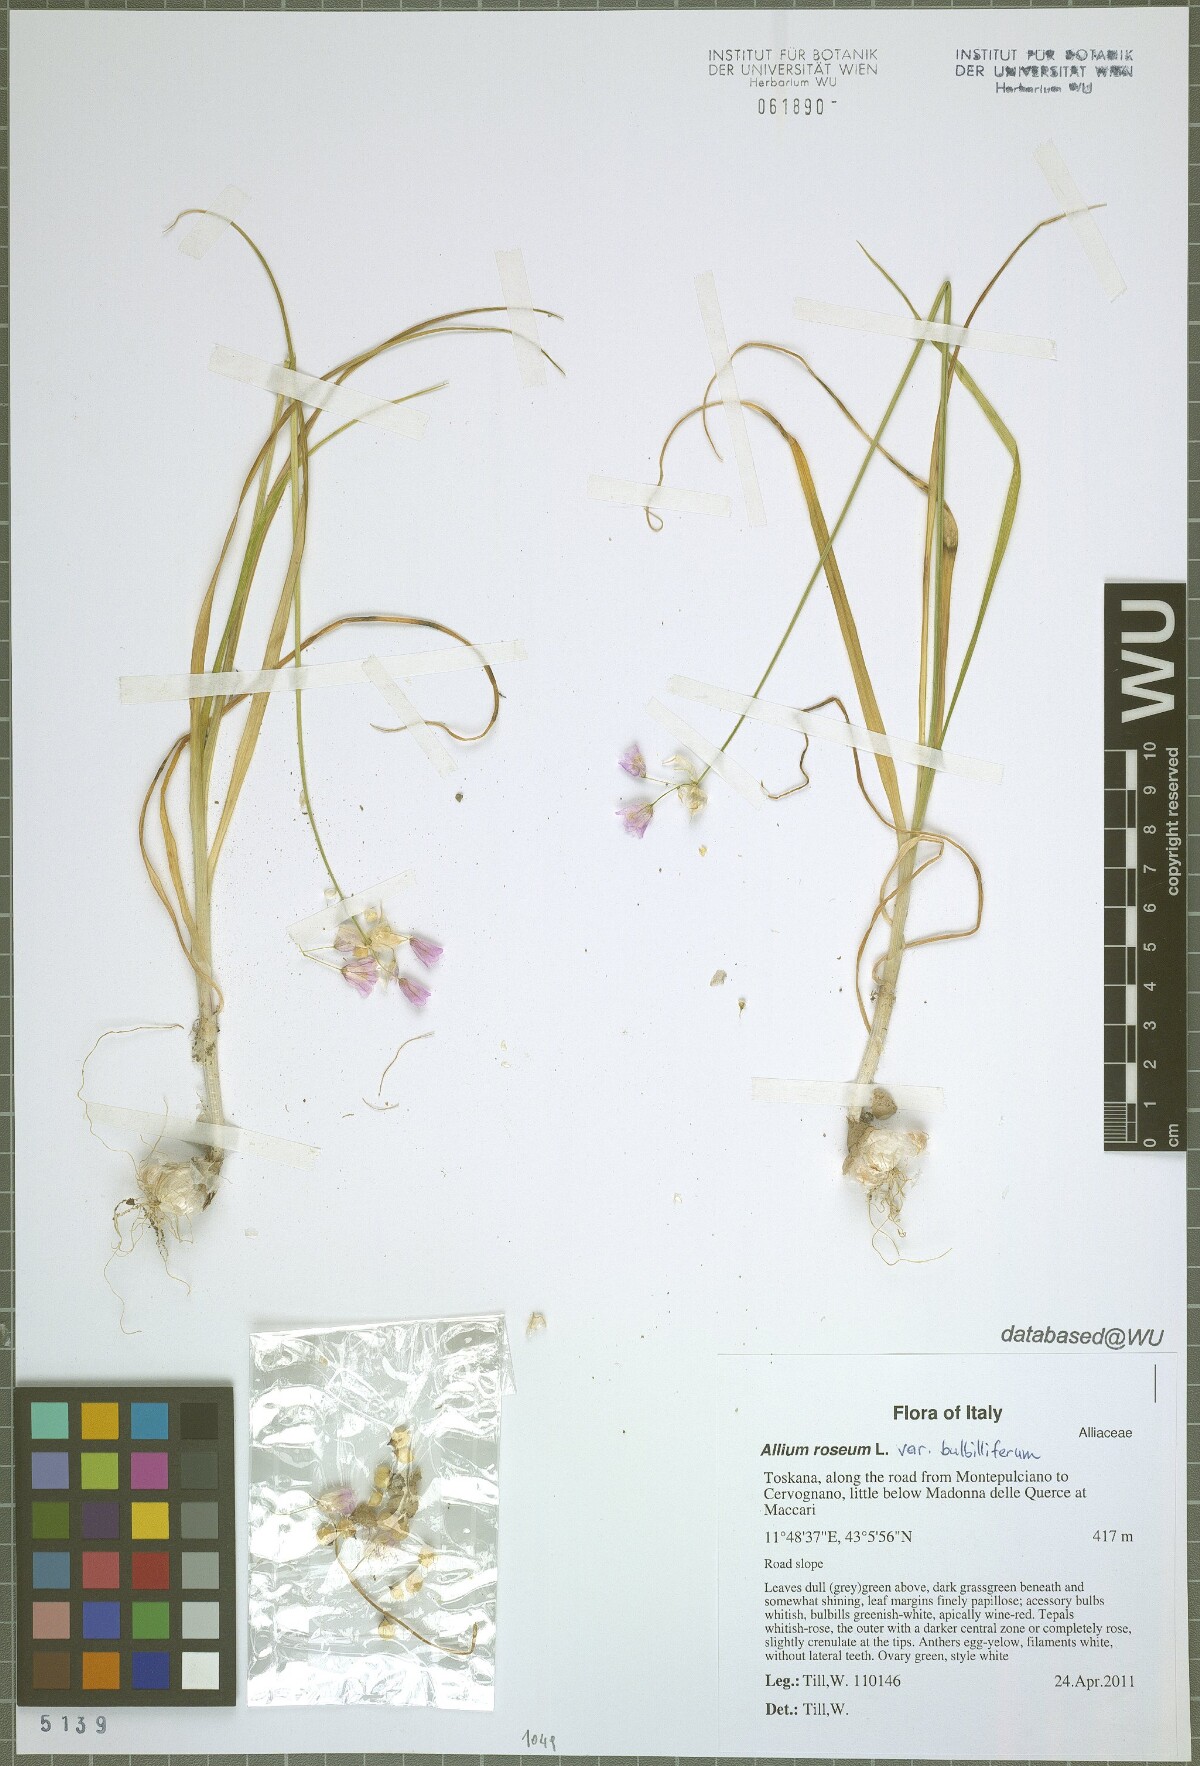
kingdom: Plantae
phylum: Tracheophyta
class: Liliopsida
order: Asparagales
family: Amaryllidaceae
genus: Allium
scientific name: Allium roseum
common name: Rosy garlic
